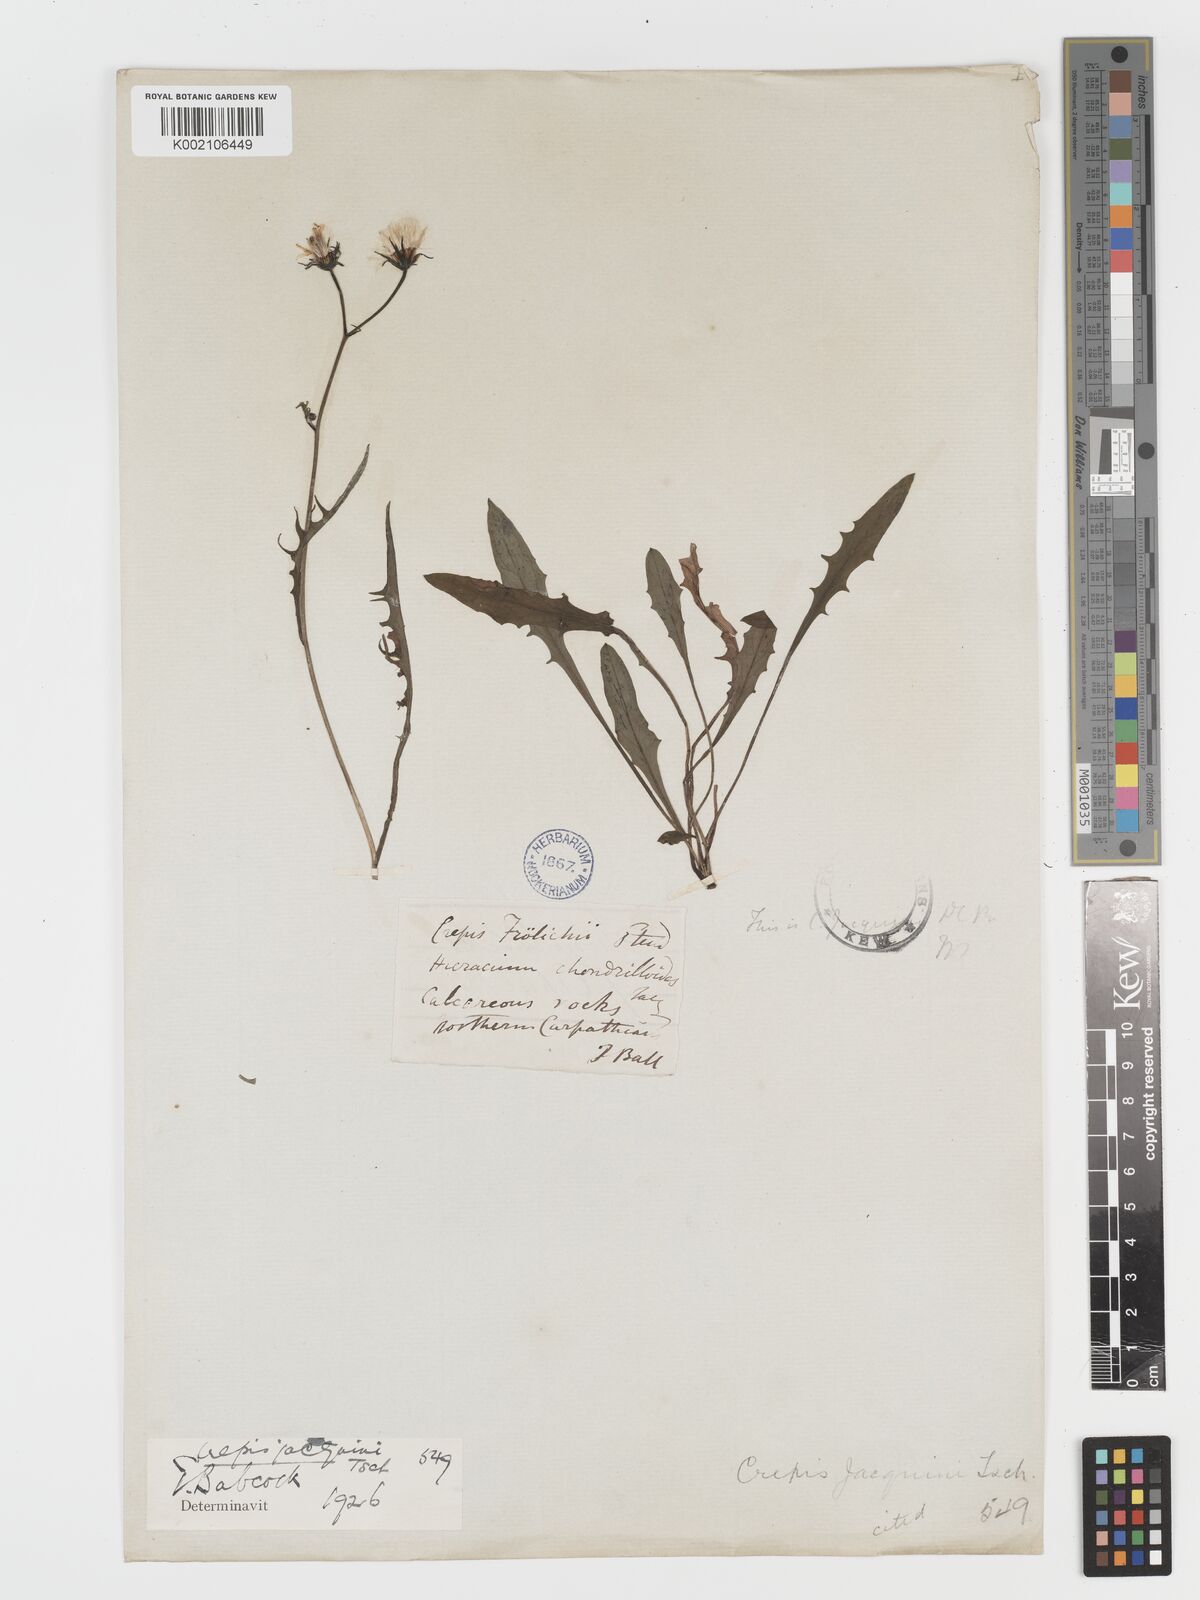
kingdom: Plantae
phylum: Tracheophyta
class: Magnoliopsida
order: Asterales
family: Asteraceae
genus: Crepis
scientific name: Crepis jacquinii
